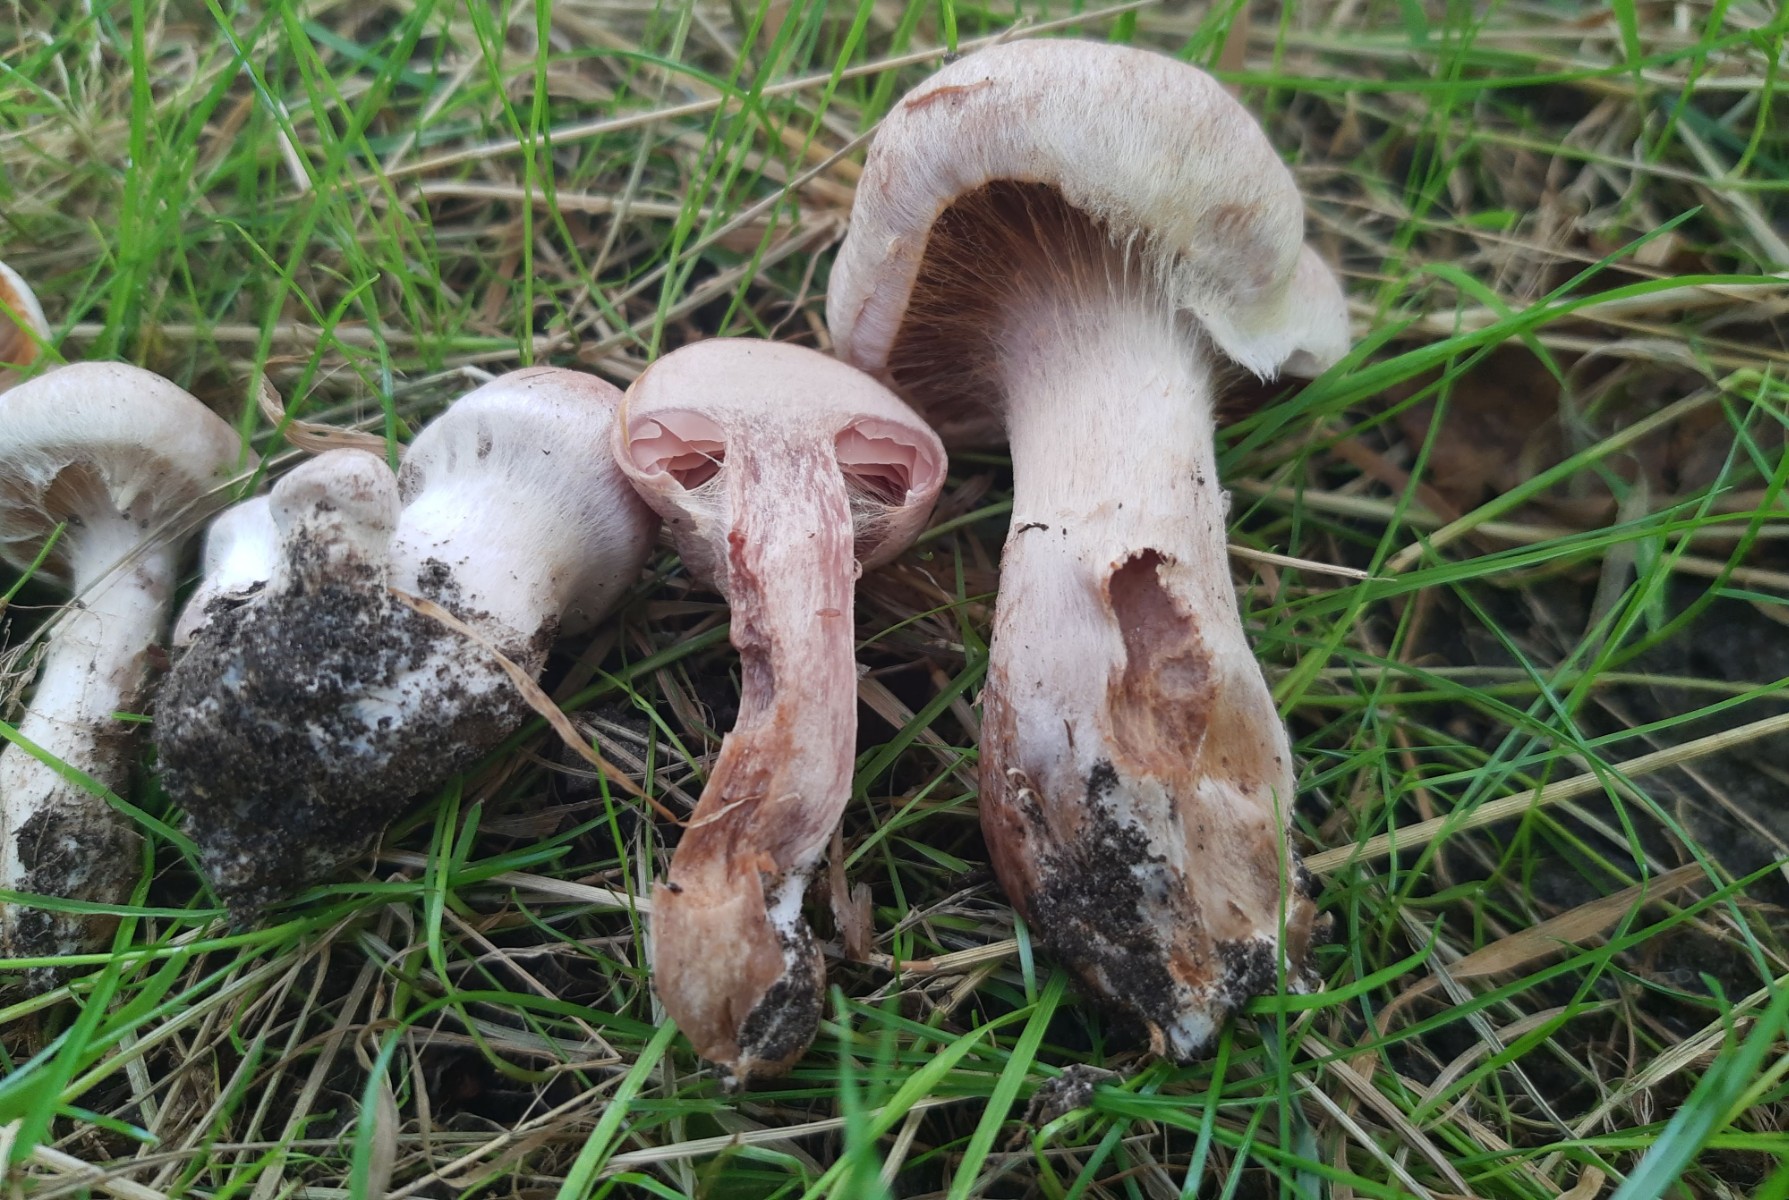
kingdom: Fungi
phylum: Basidiomycota
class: Agaricomycetes
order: Agaricales
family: Cortinariaceae
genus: Cortinarius
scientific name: Cortinarius lucorum
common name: aspe-slørhat
